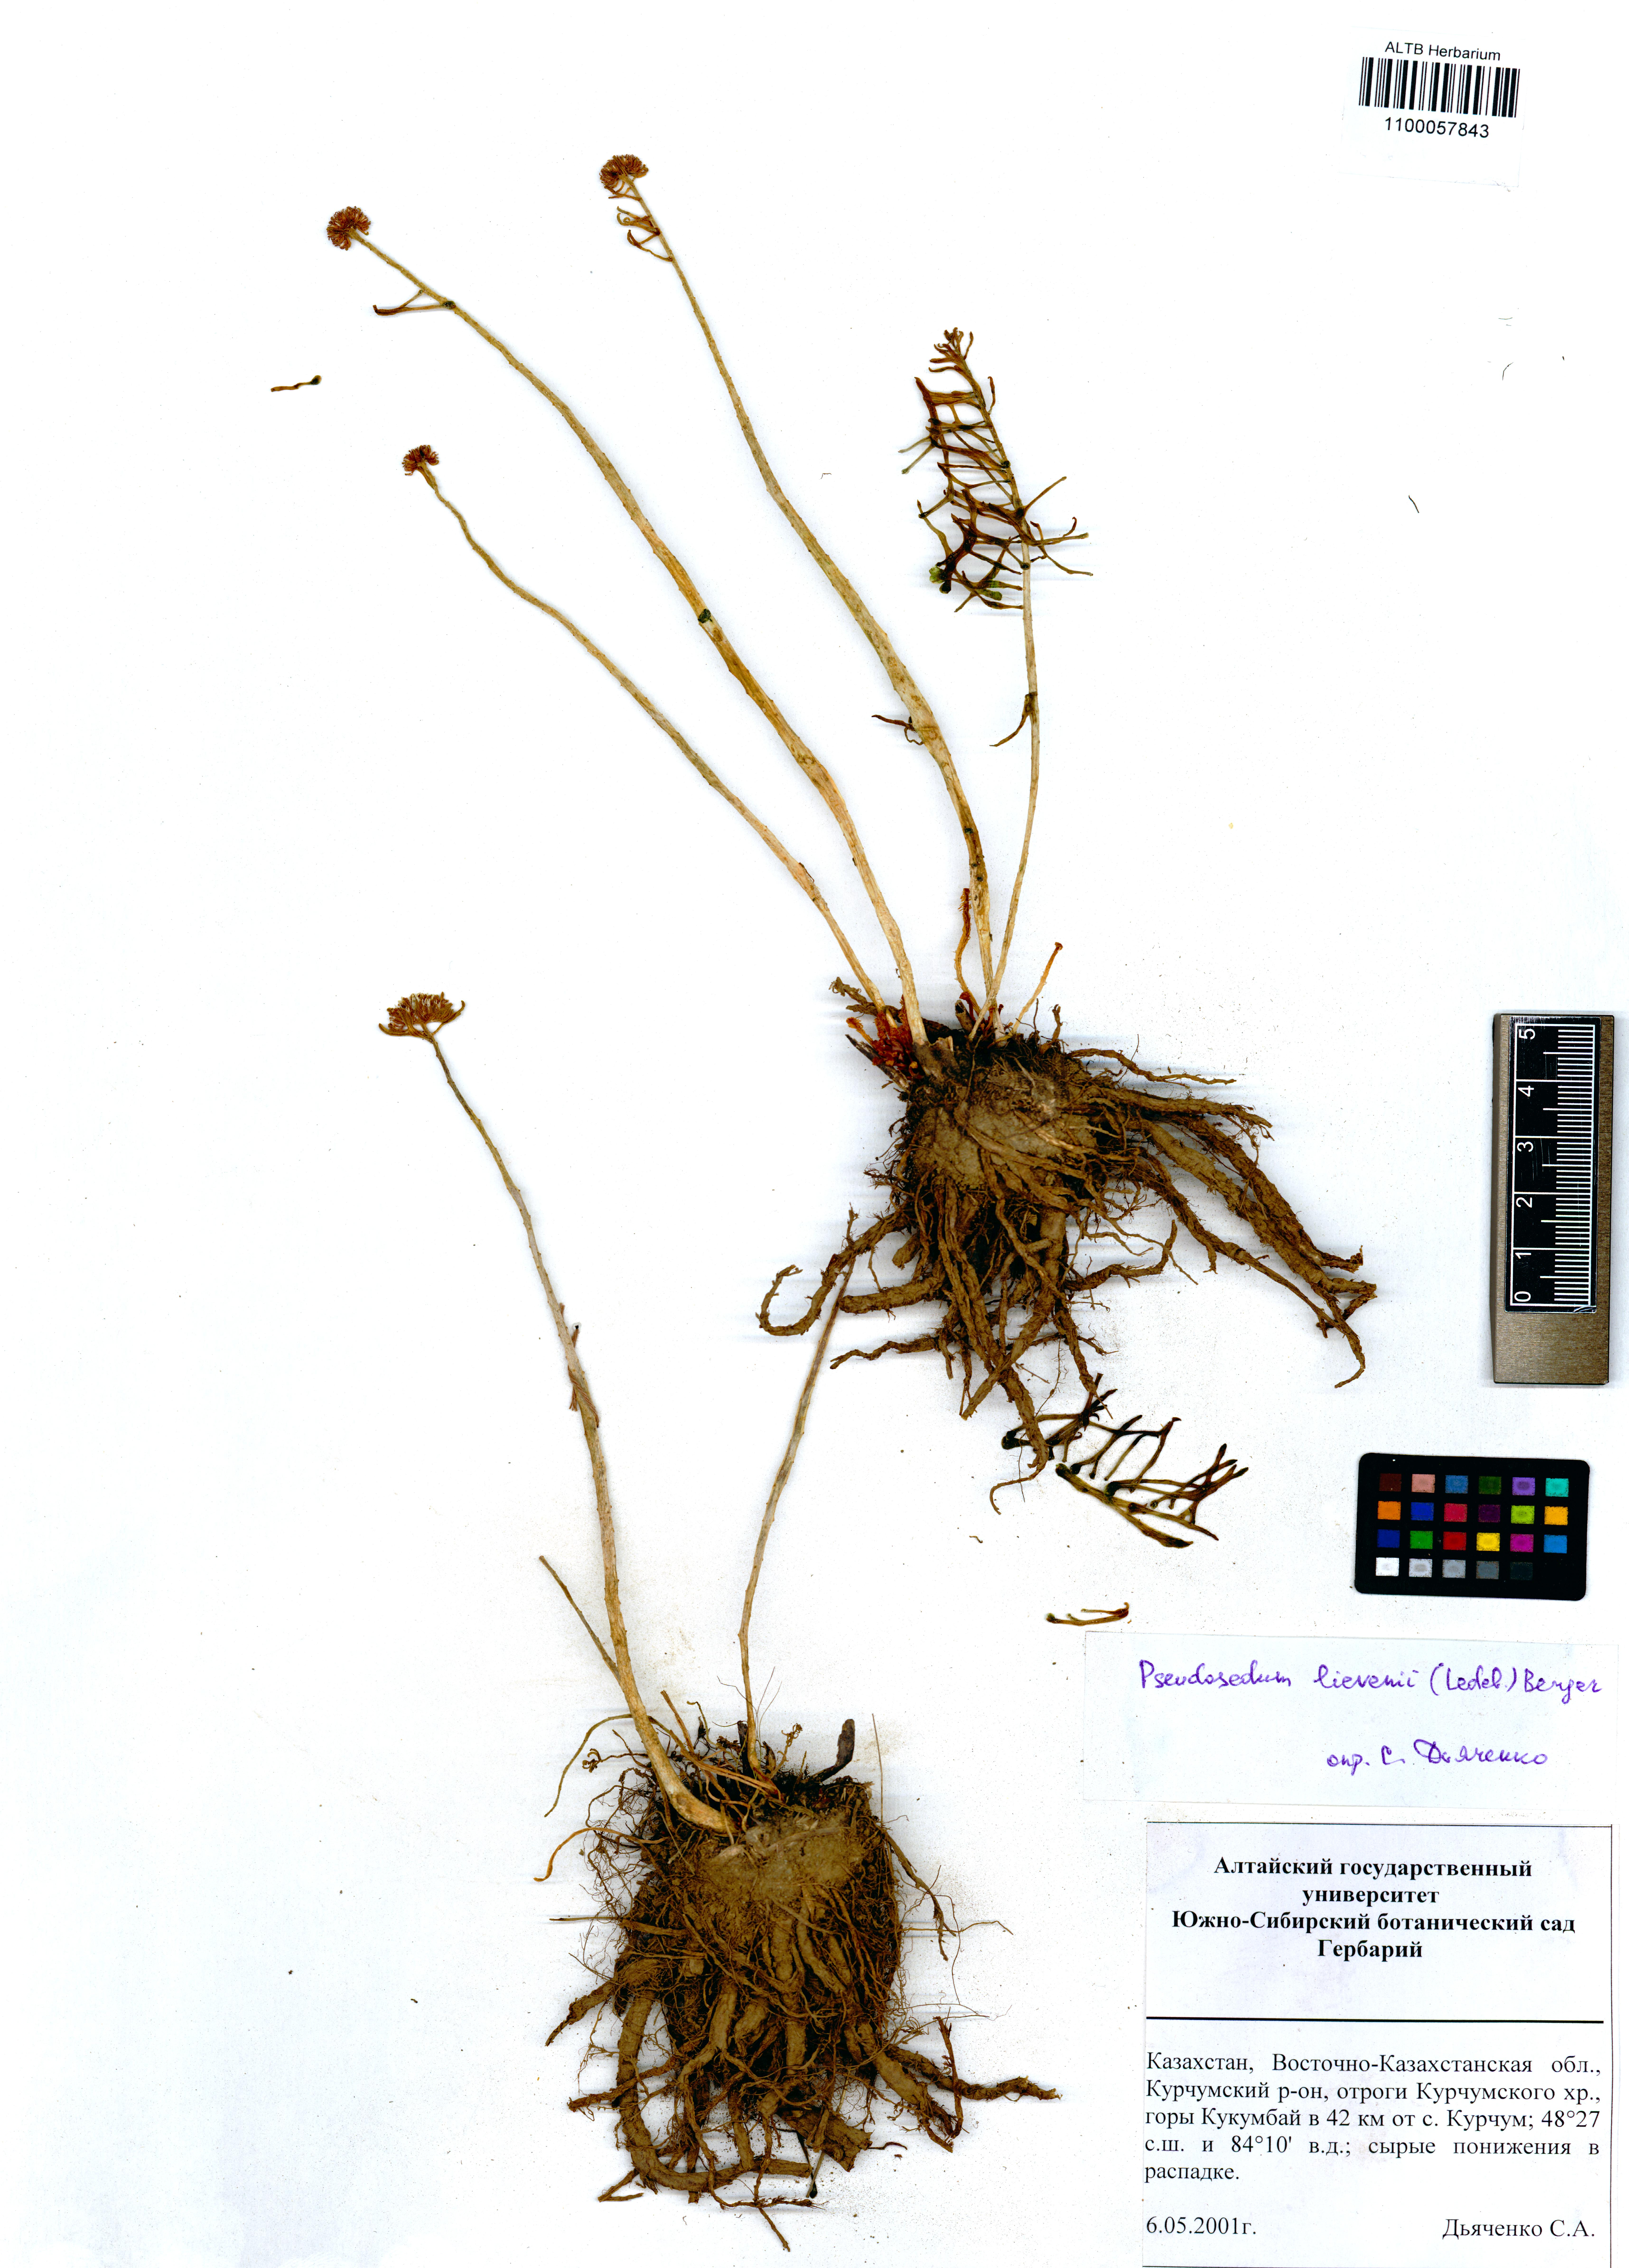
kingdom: Plantae
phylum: Tracheophyta
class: Magnoliopsida
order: Saxifragales
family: Crassulaceae
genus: Pseudosedum
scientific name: Pseudosedum lievenii
